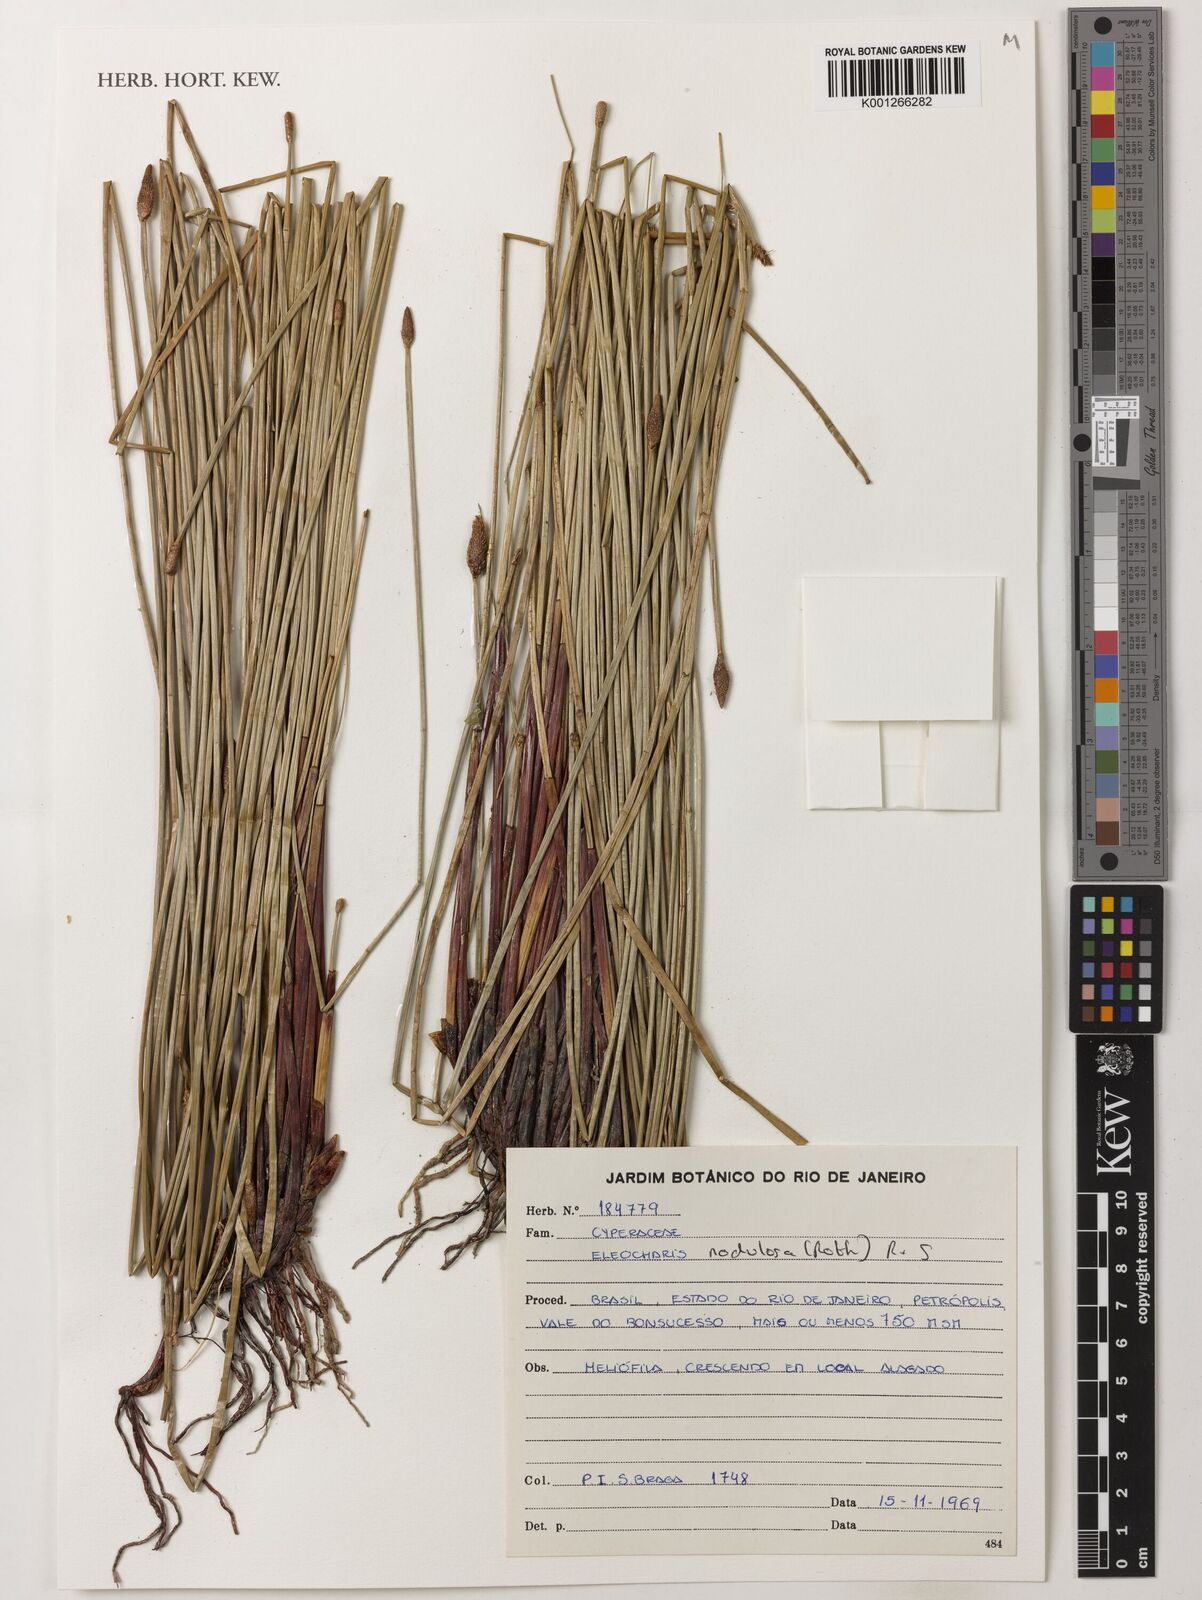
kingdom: Plantae
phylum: Tracheophyta
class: Liliopsida
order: Poales
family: Cyperaceae
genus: Eleocharis
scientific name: Eleocharis montana
